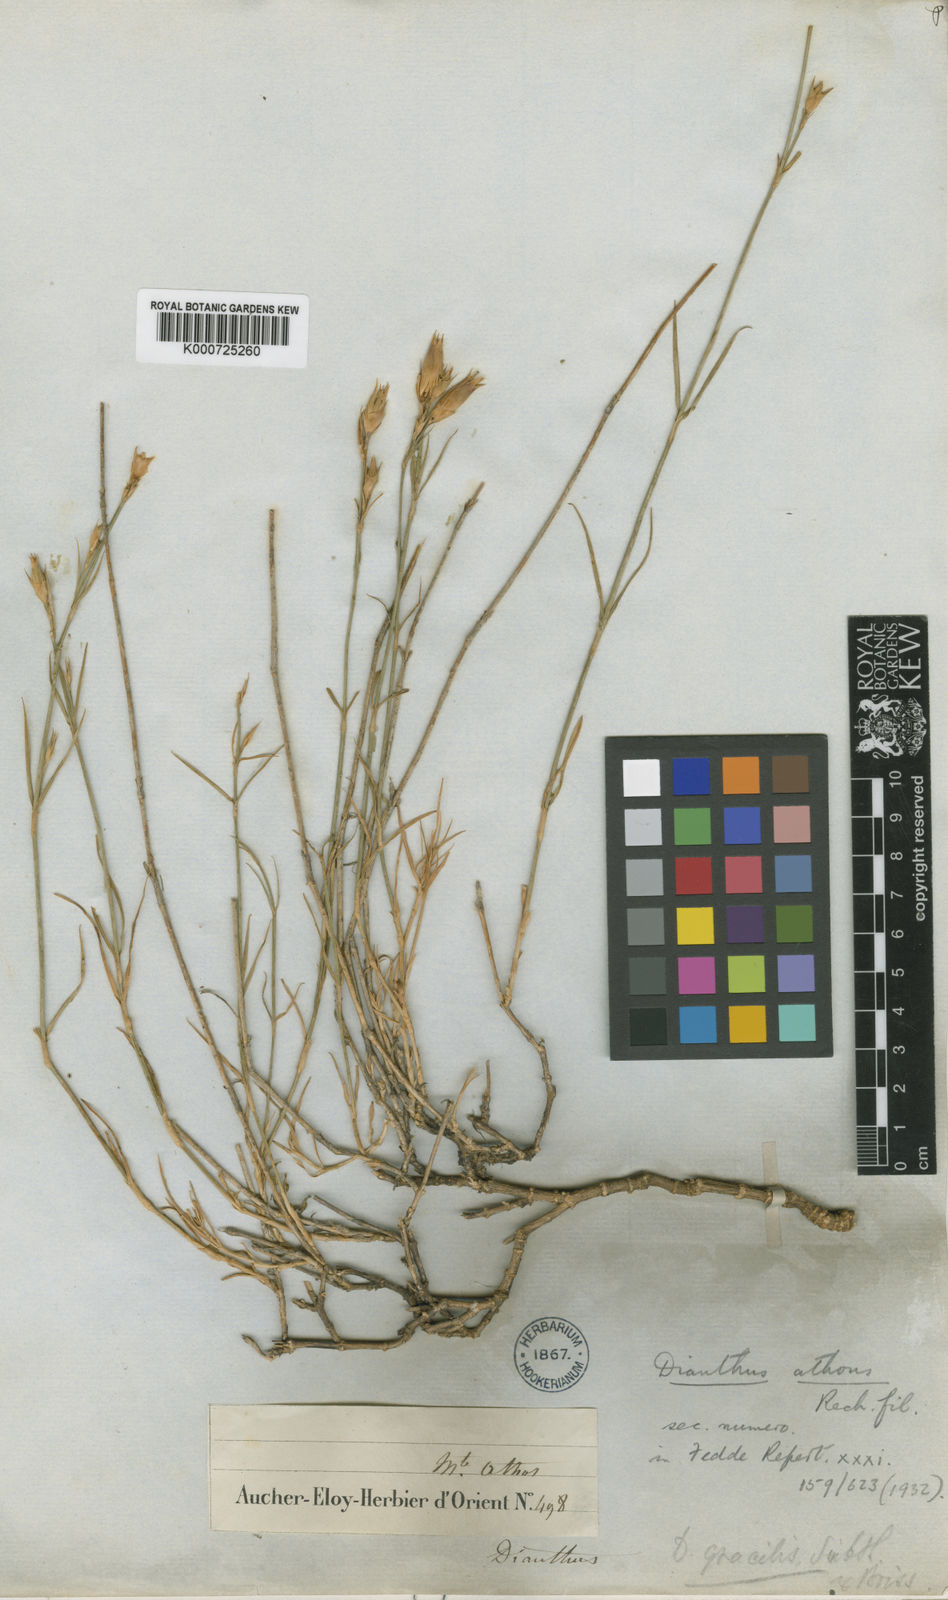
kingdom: Plantae
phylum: Tracheophyta
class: Magnoliopsida
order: Caryophyllales
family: Caryophyllaceae
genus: Dianthus
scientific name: Dianthus
